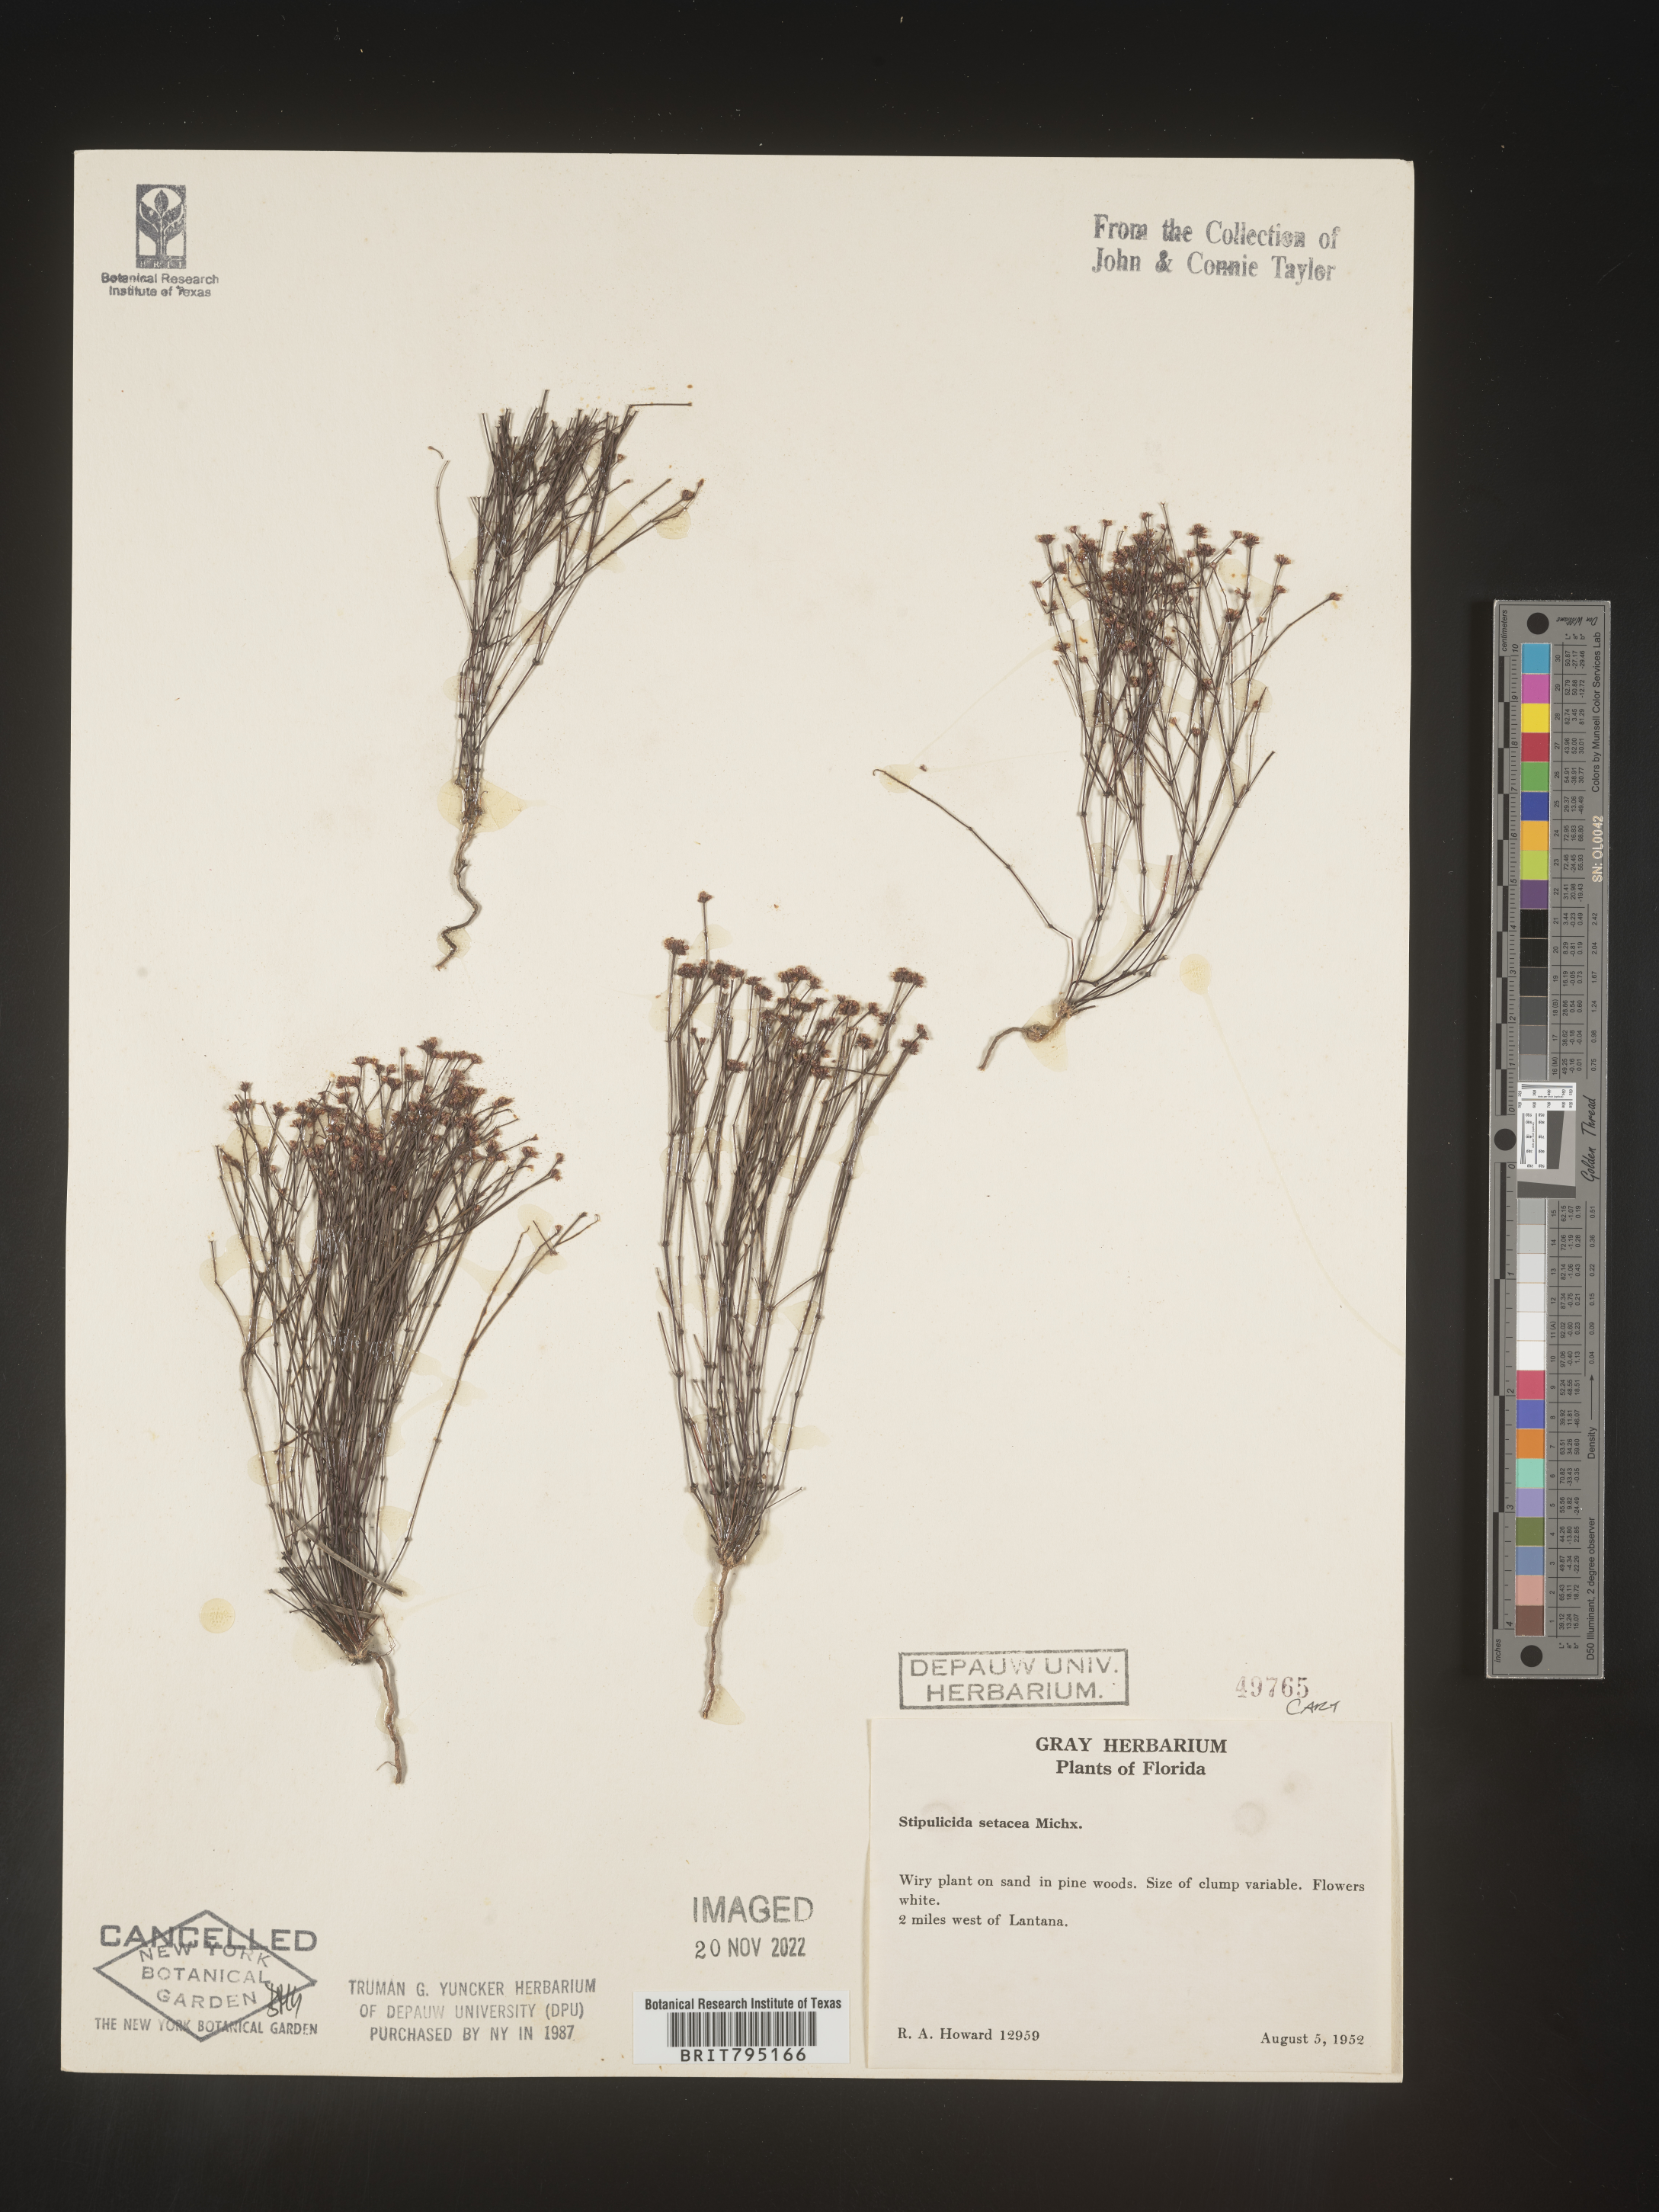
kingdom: Plantae
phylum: Tracheophyta
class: Magnoliopsida
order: Caryophyllales
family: Caryophyllaceae
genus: Stipulicida
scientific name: Stipulicida
